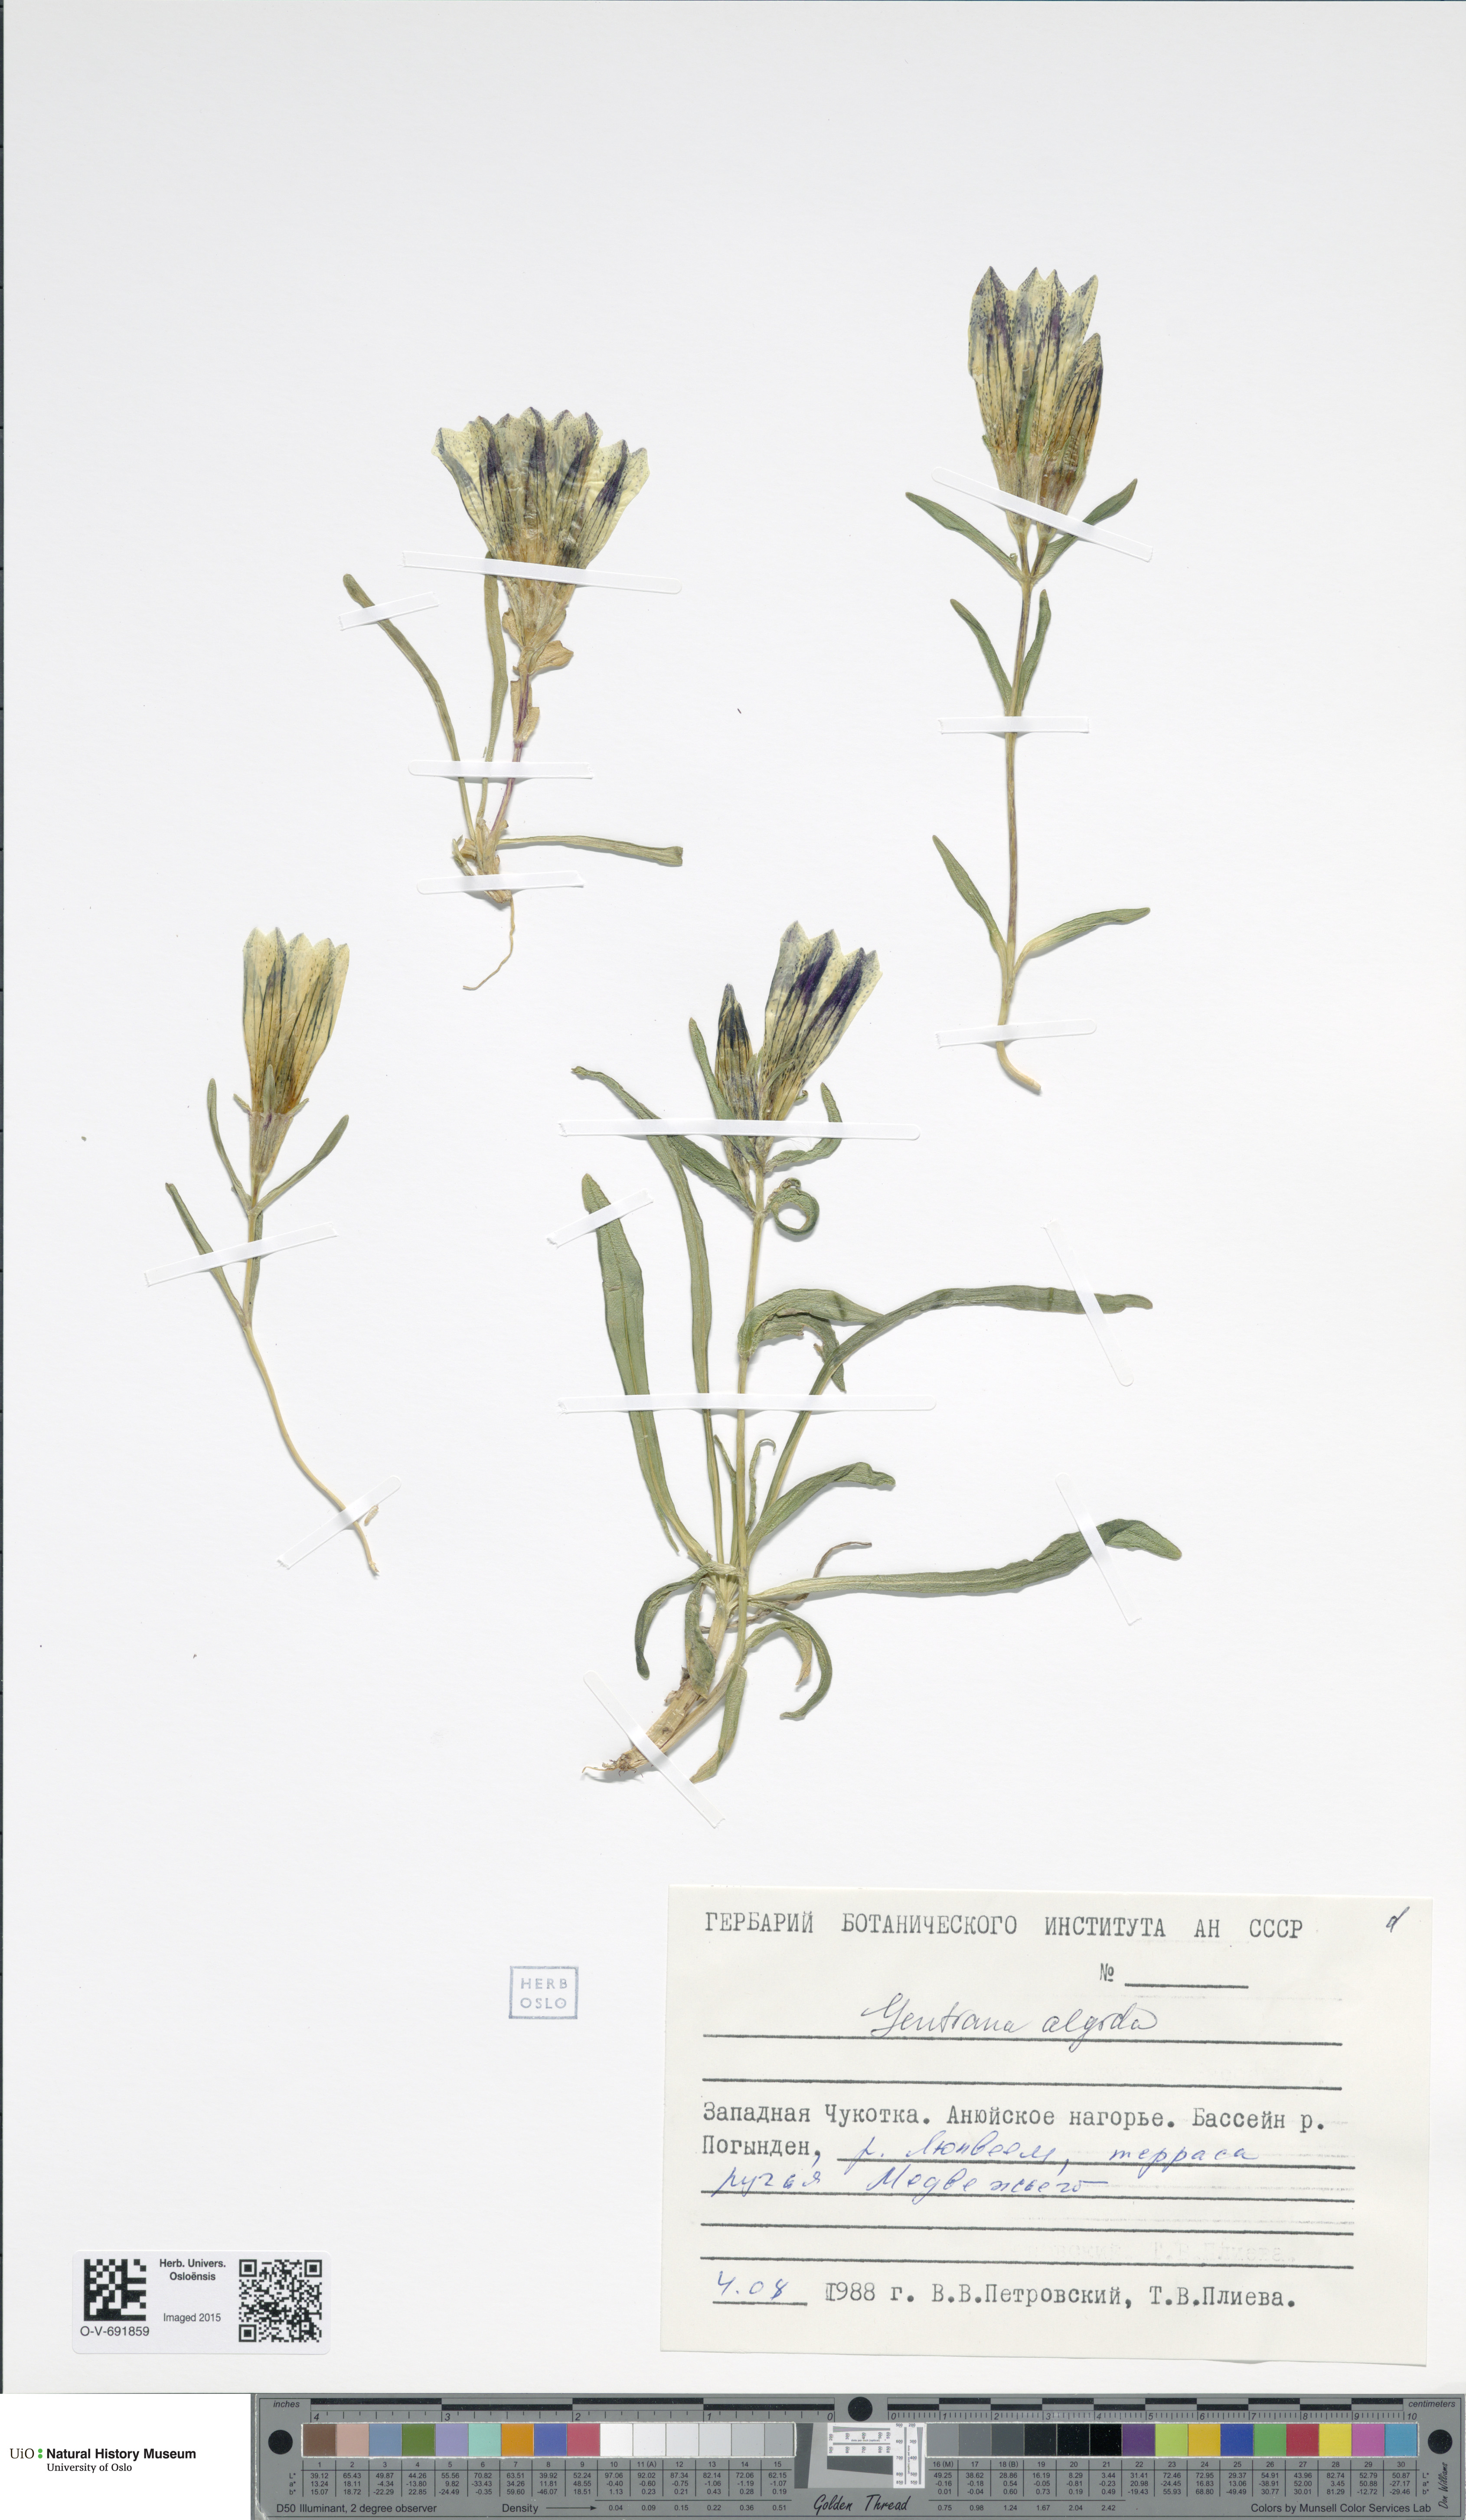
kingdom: Plantae
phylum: Tracheophyta
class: Magnoliopsida
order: Gentianales
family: Gentianaceae
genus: Gentiana
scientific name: Gentiana algida
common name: Arctic gentian
